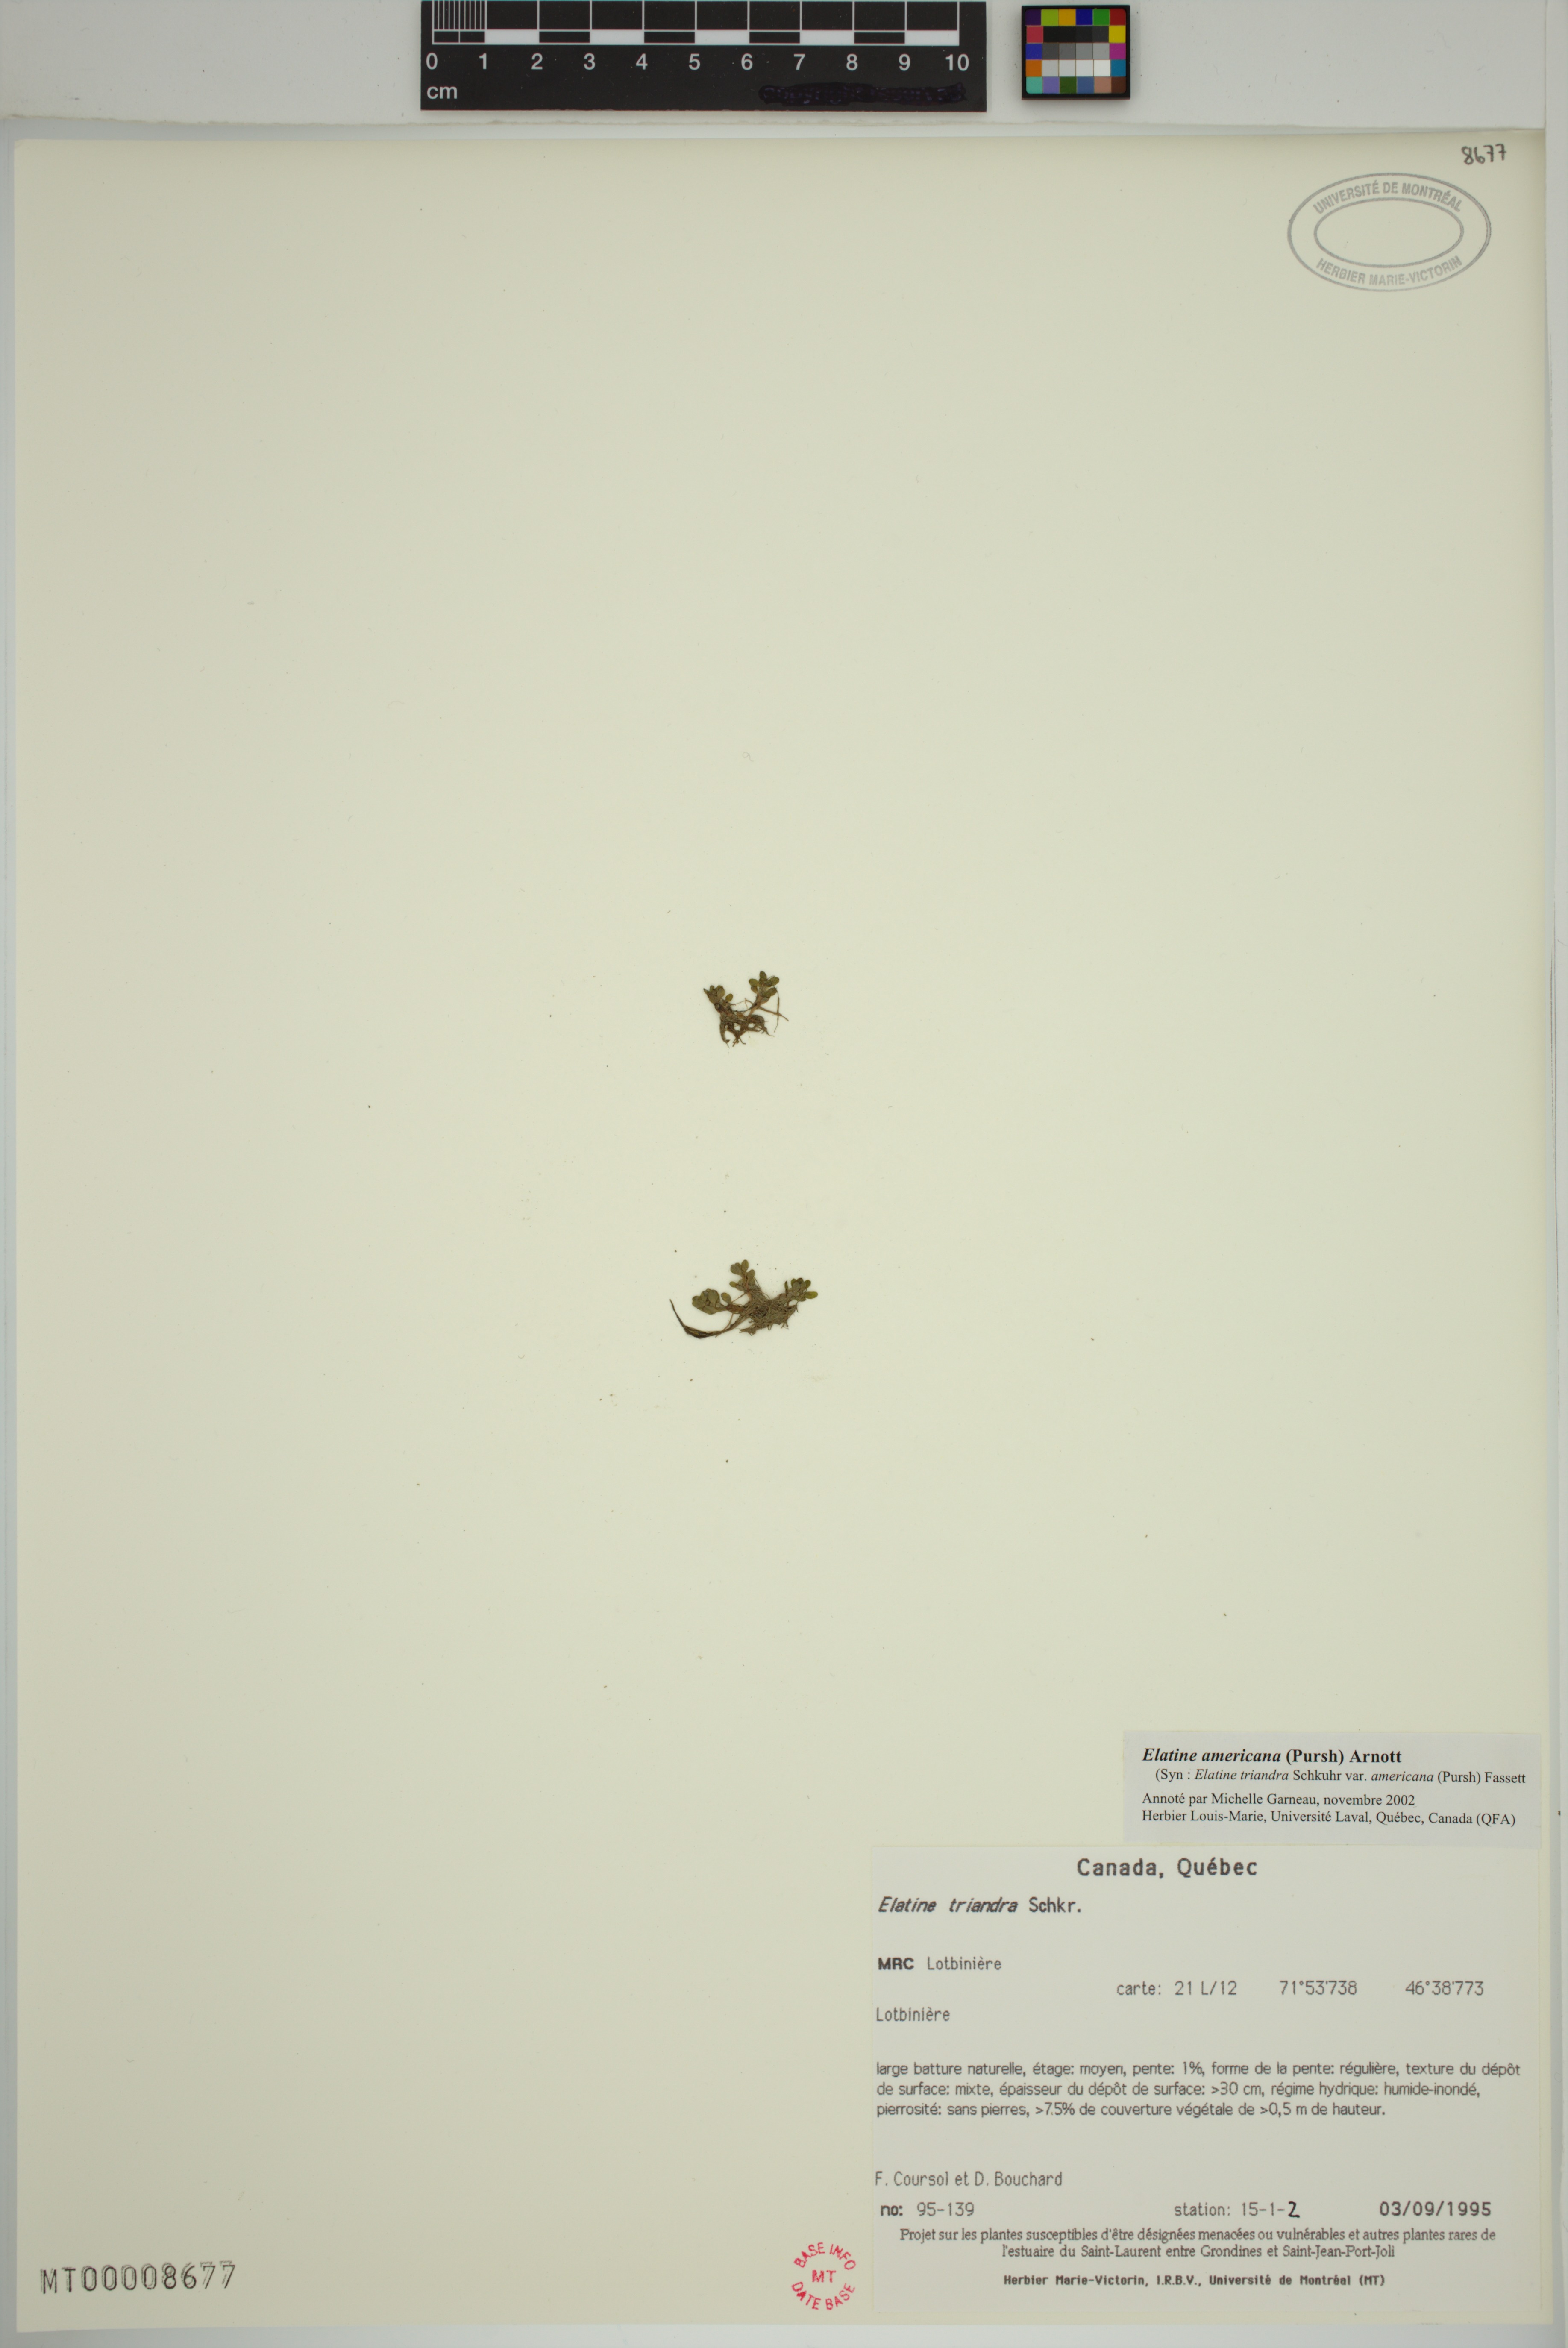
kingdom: Plantae
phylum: Tracheophyta
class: Magnoliopsida
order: Malpighiales
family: Elatinaceae
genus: Elatine
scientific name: Elatine americana
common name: American waterwort
